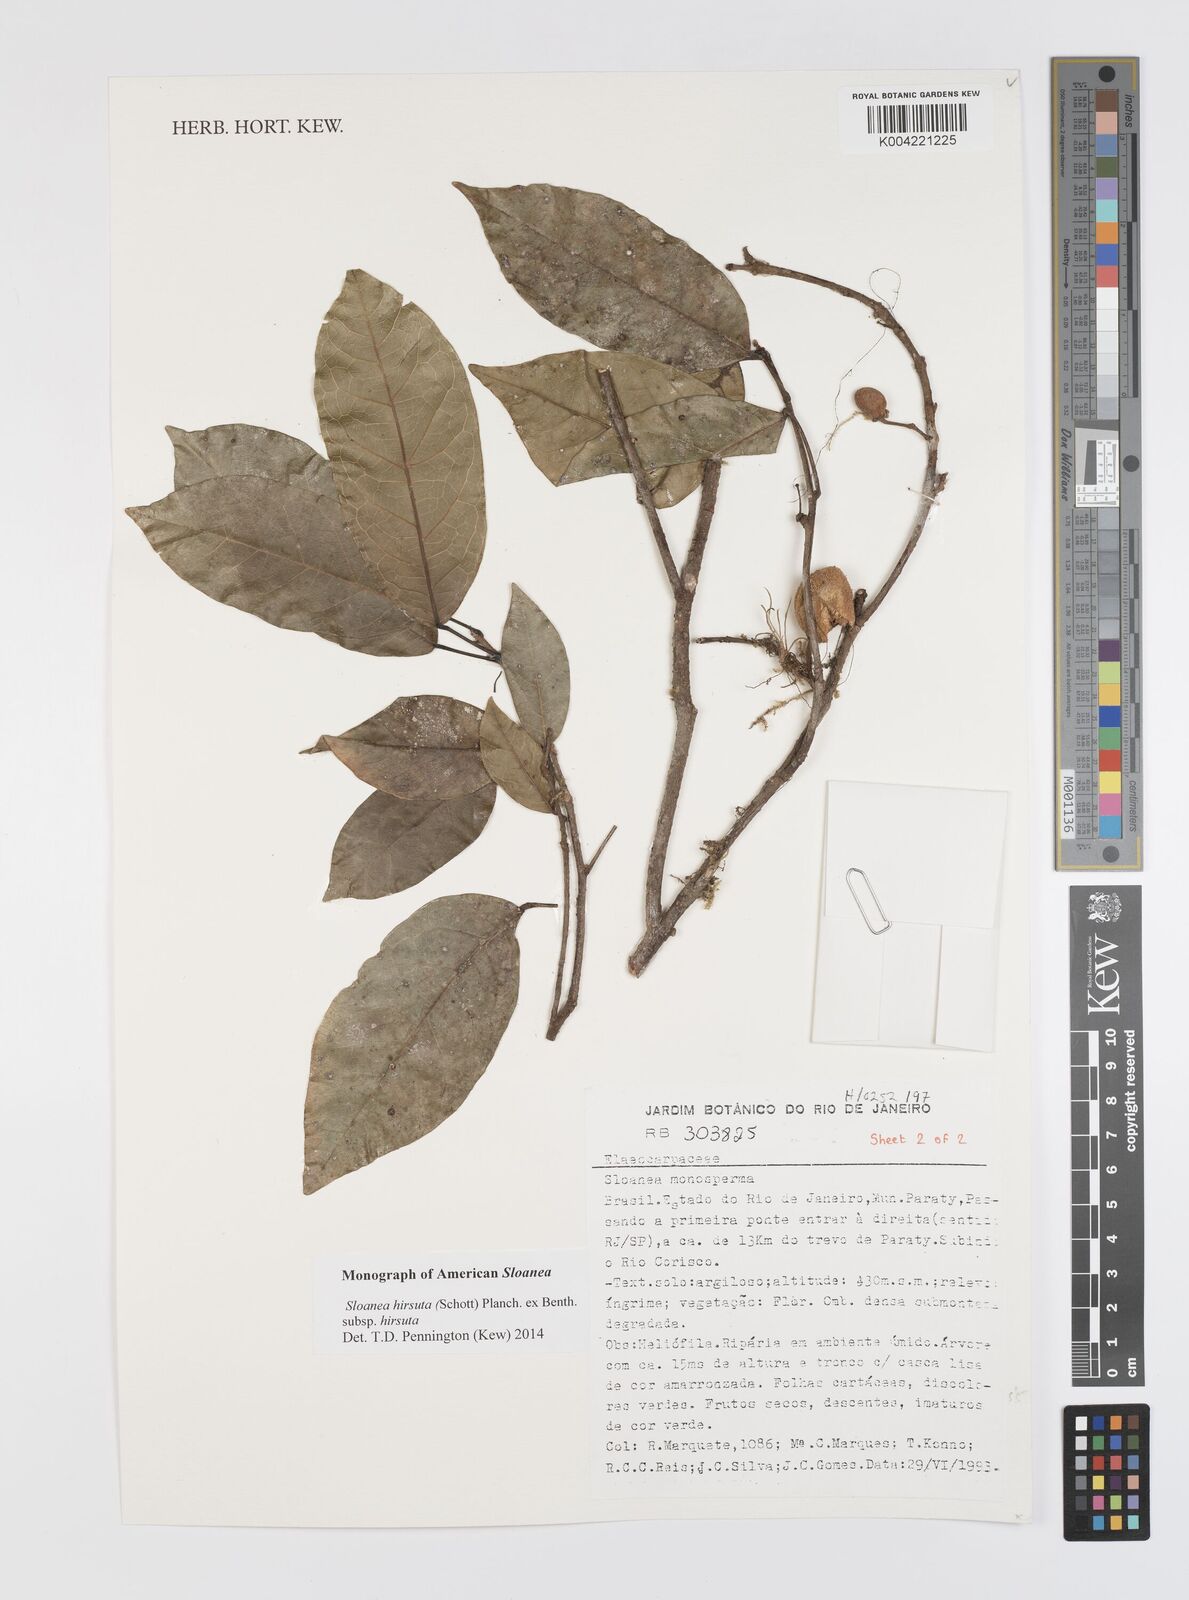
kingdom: Plantae
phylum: Tracheophyta
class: Magnoliopsida
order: Oxalidales
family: Elaeocarpaceae
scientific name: Elaeocarpaceae
